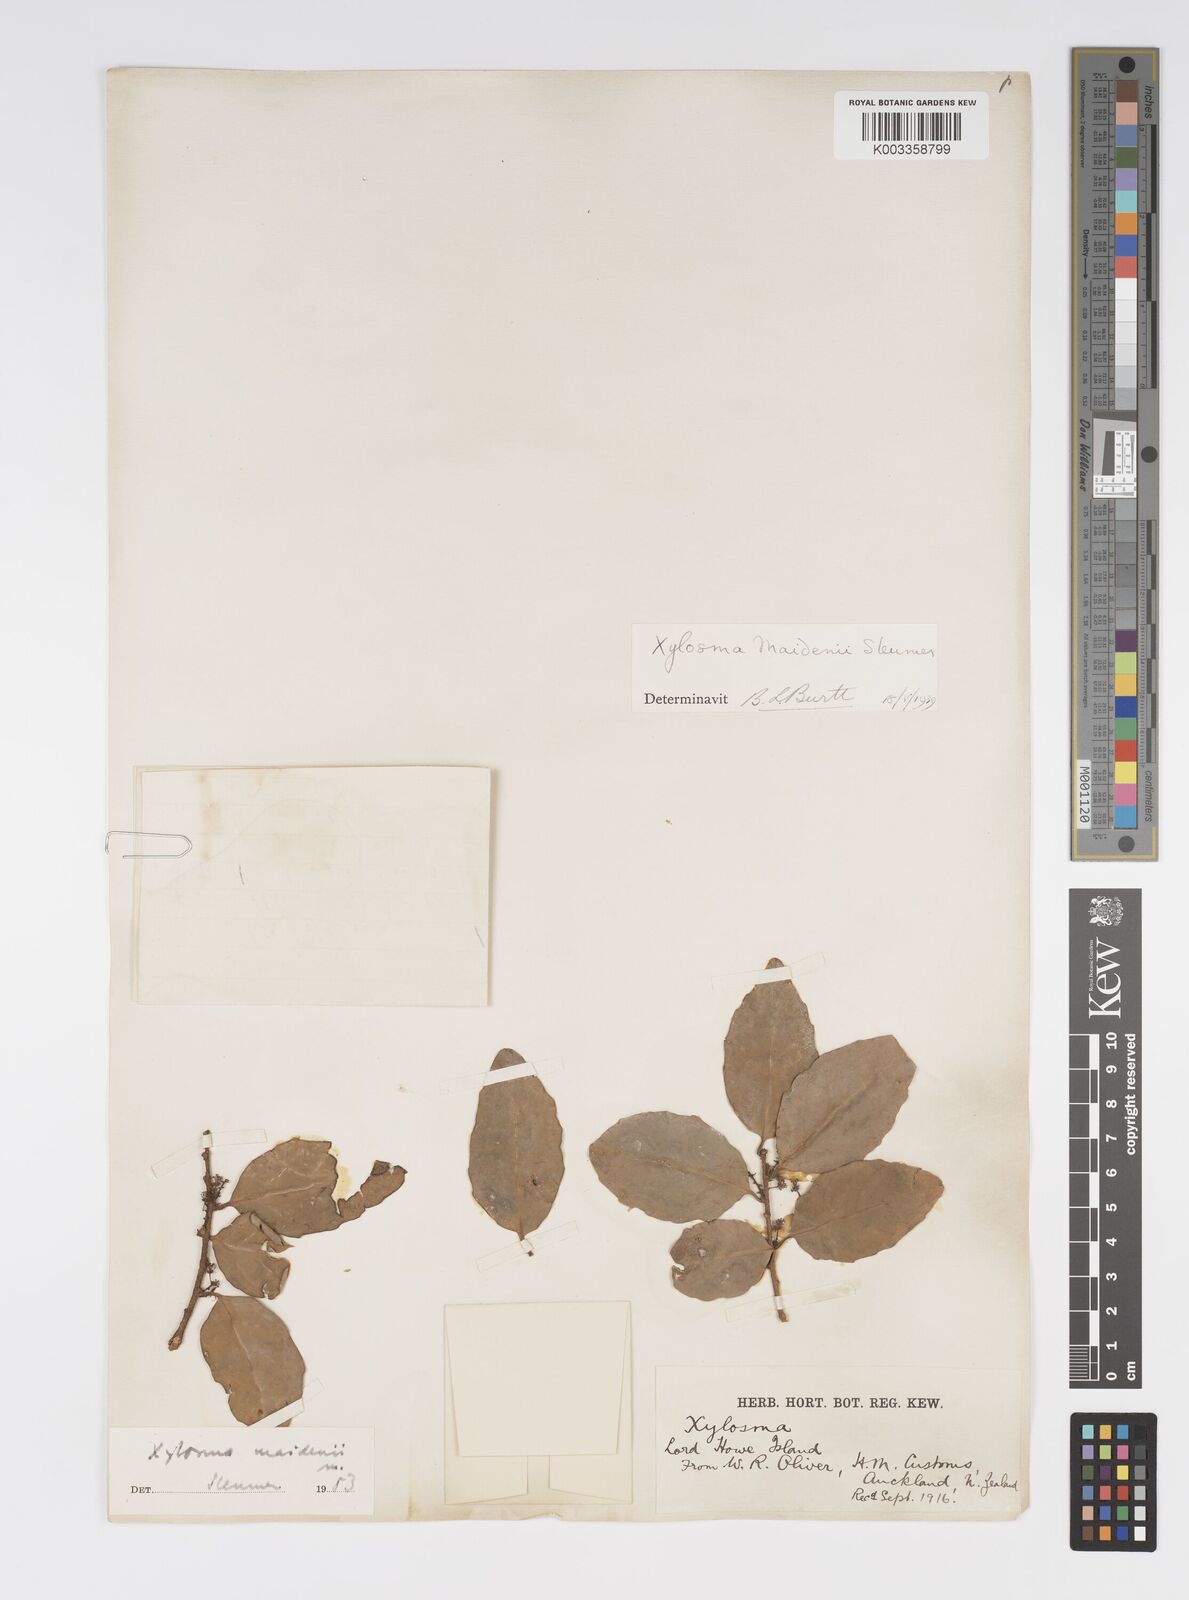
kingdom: Plantae
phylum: Tracheophyta
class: Magnoliopsida
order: Malpighiales
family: Salicaceae
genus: Xylosma
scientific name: Xylosma maidenii
